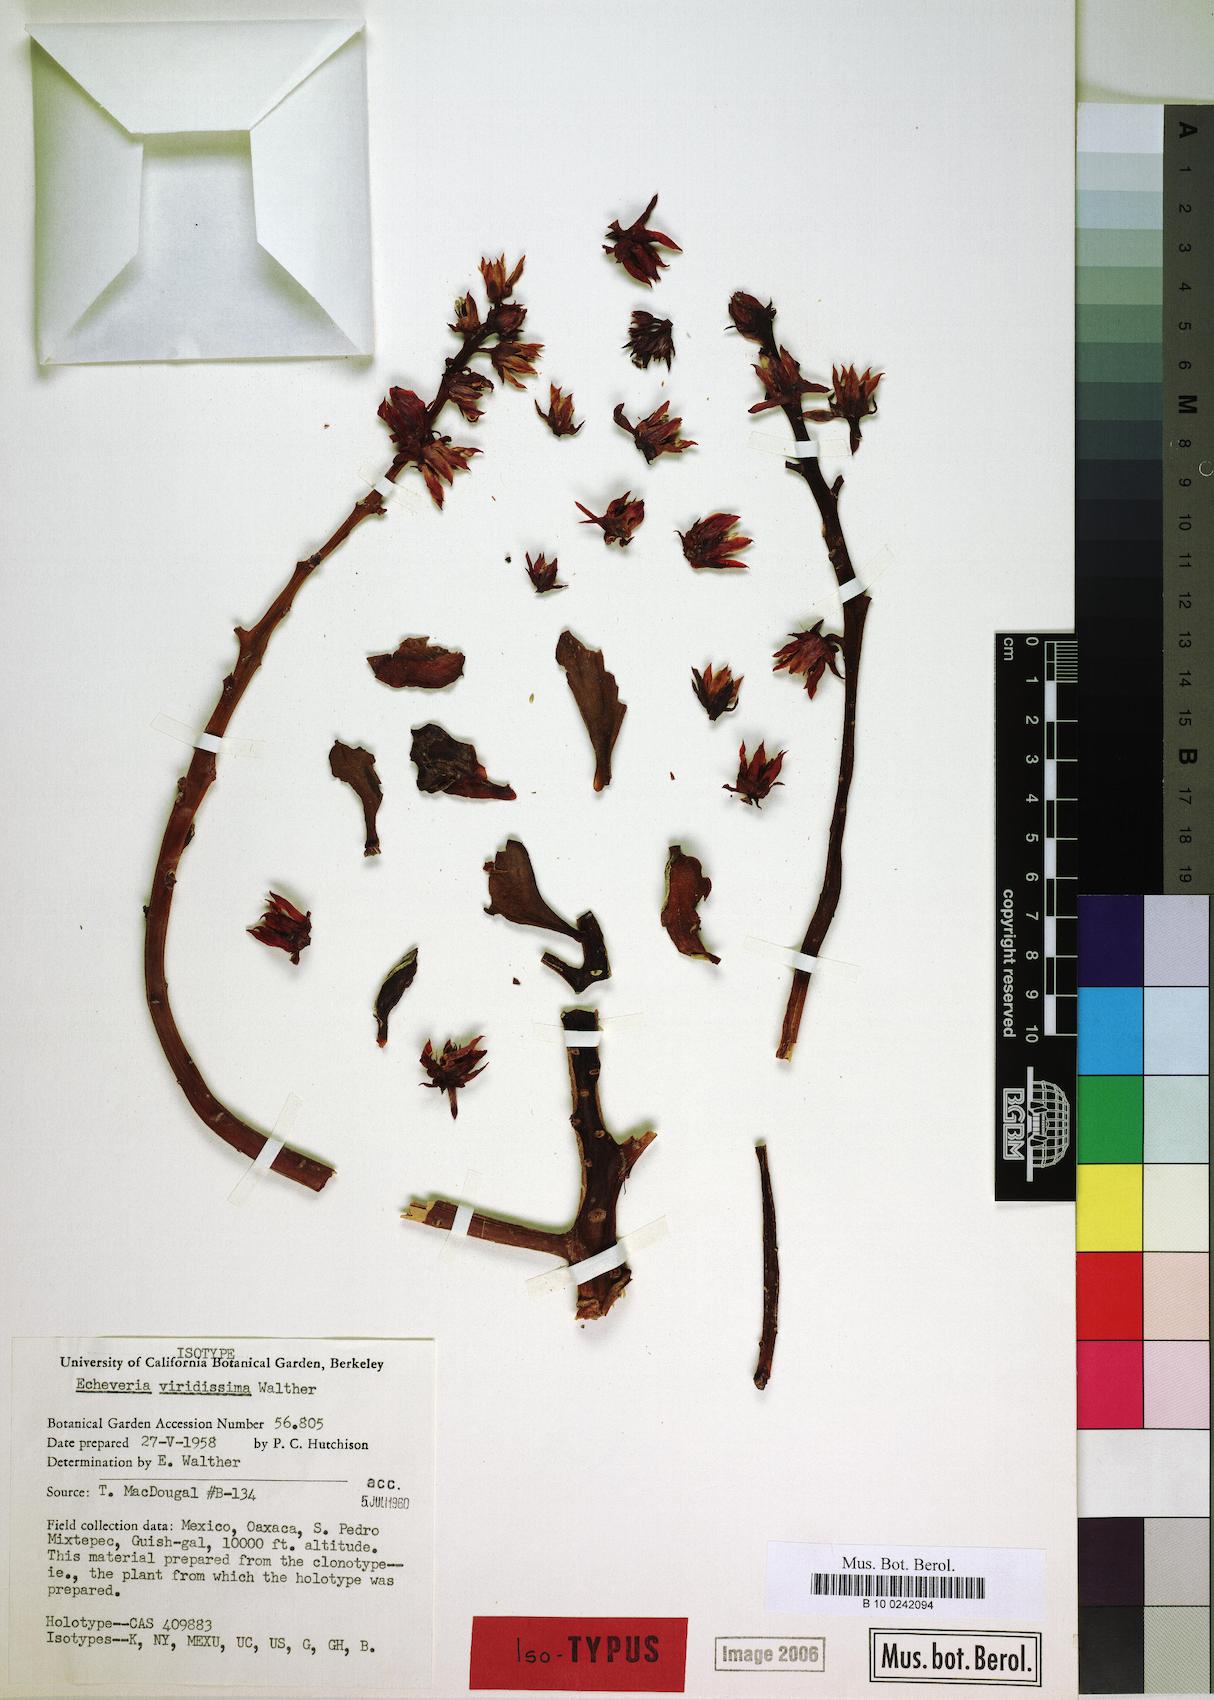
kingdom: Plantae
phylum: Tracheophyta
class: Magnoliopsida
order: Saxifragales
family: Crassulaceae
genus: Echeveria
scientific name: Echeveria viridissima
